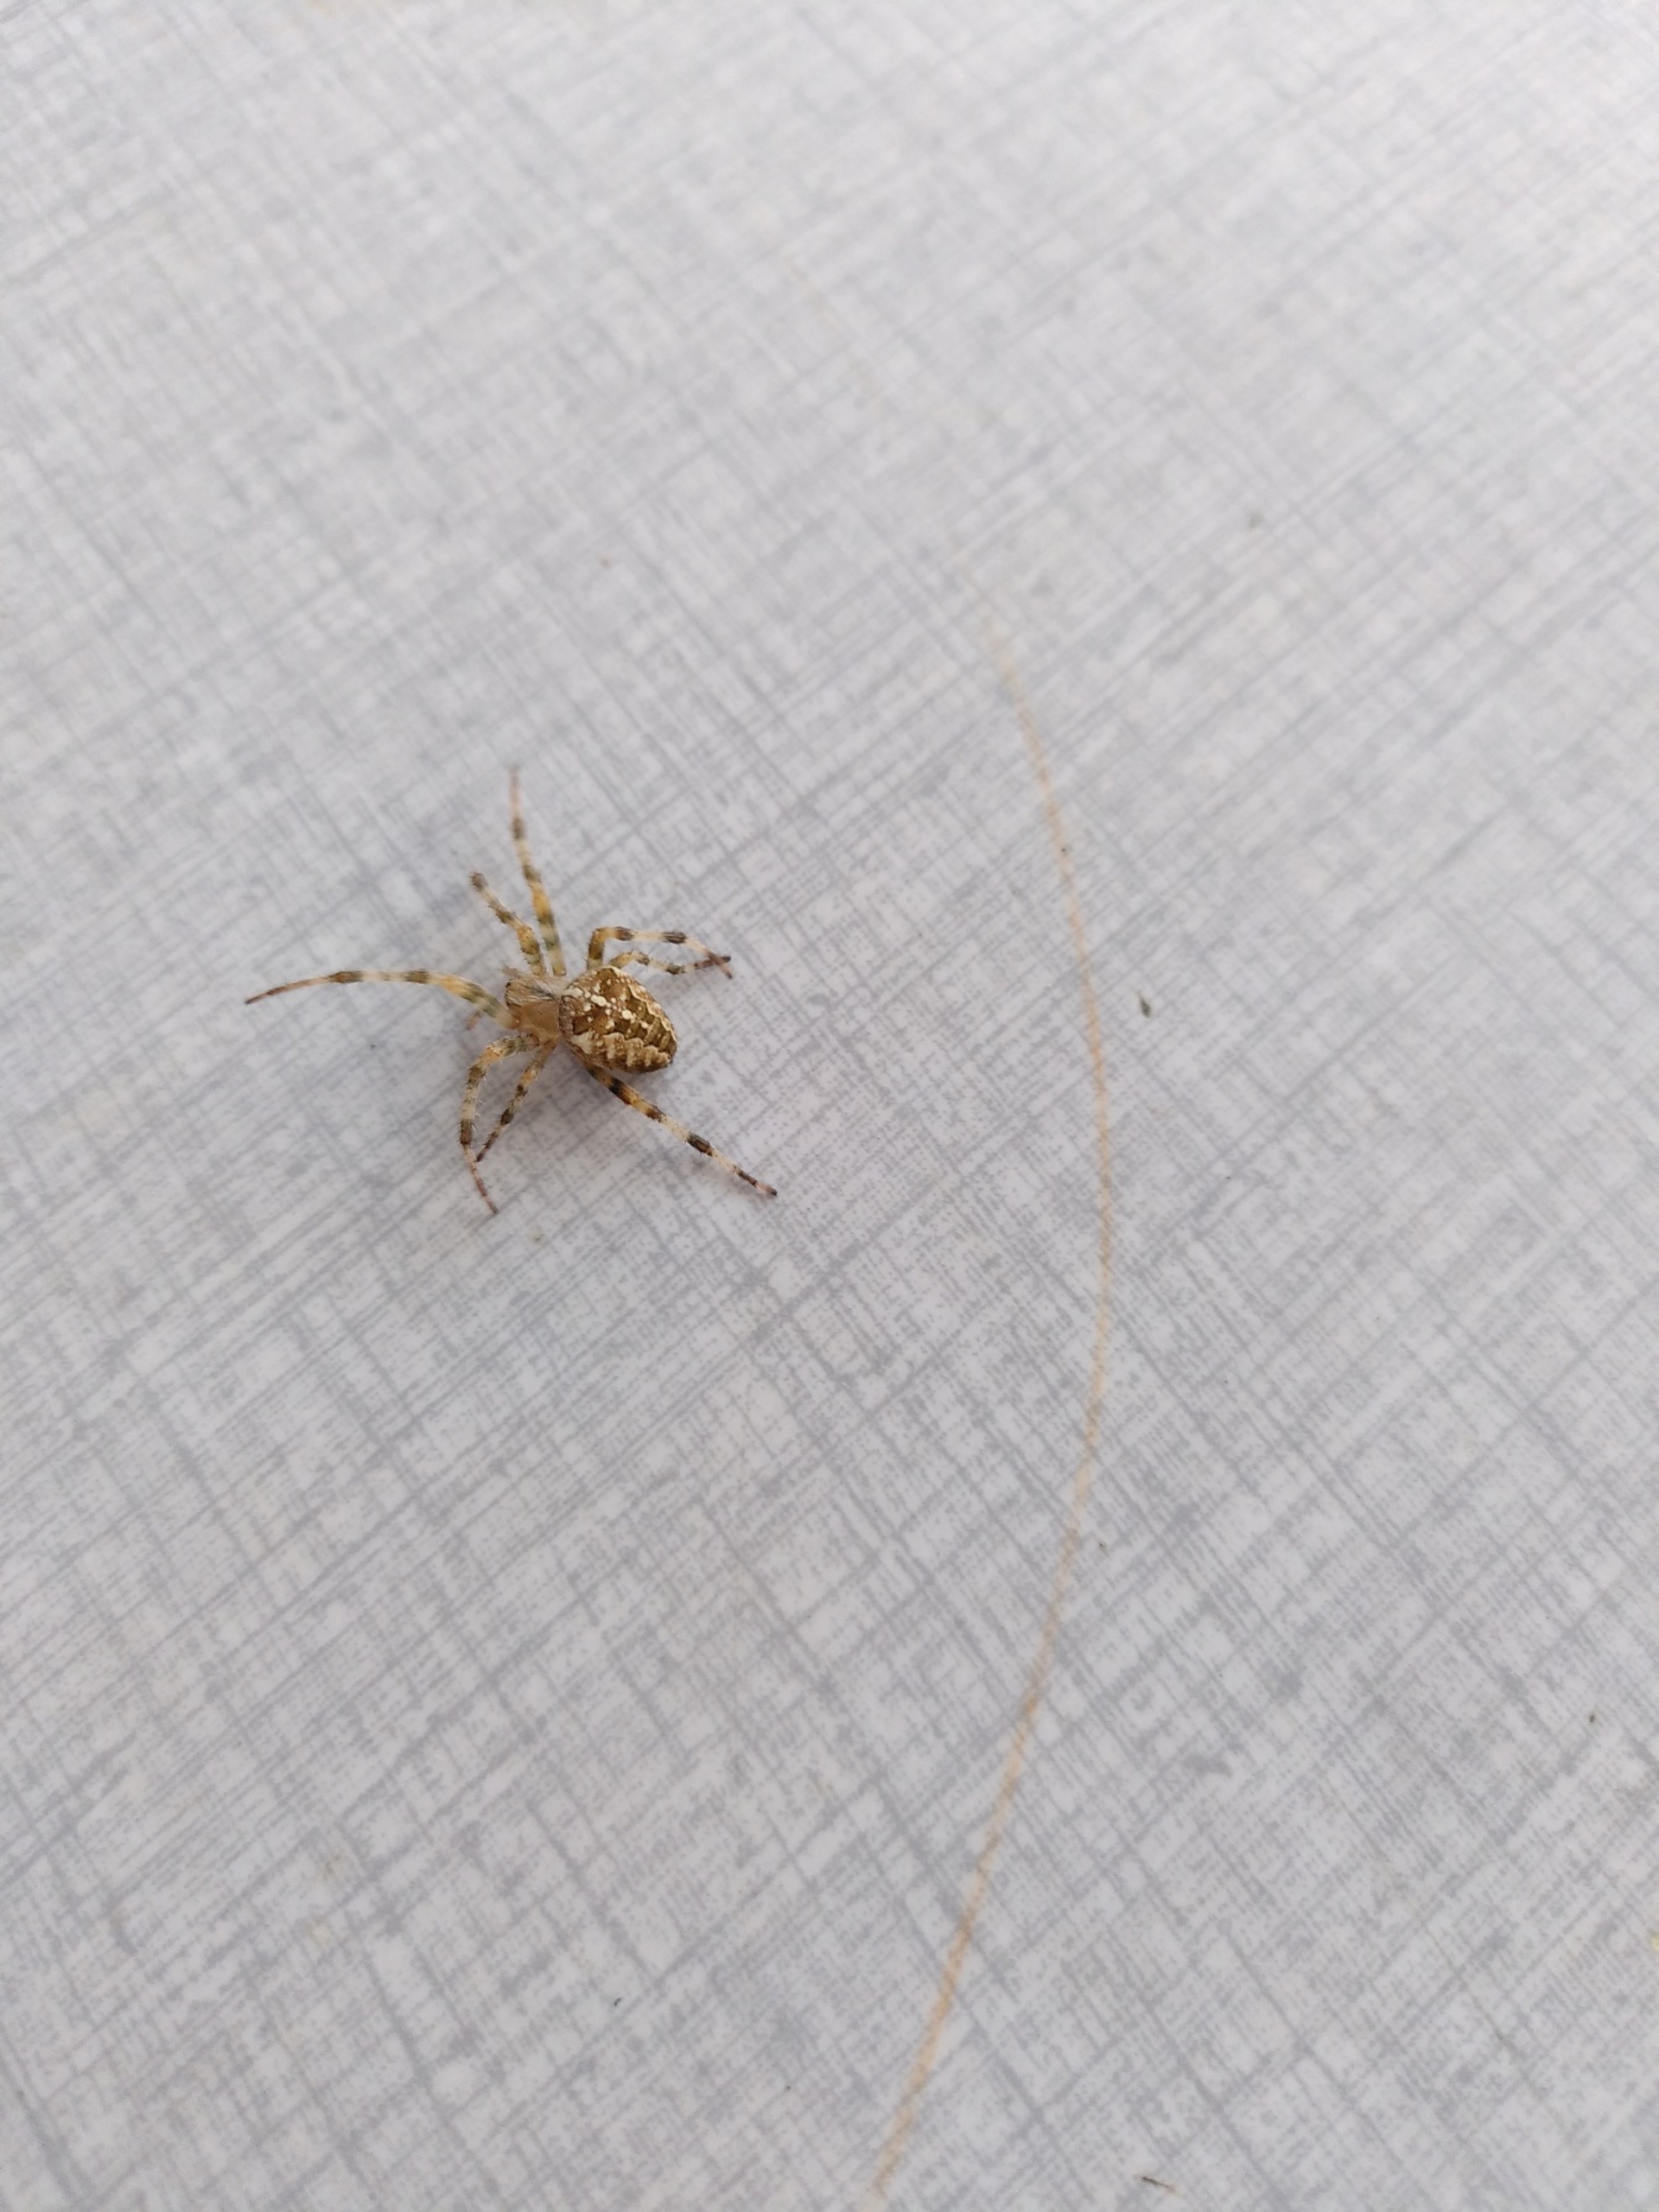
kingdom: Animalia
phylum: Arthropoda
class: Arachnida
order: Araneae
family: Araneidae
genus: Araneus
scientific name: Araneus diadematus
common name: Korsedderkop
